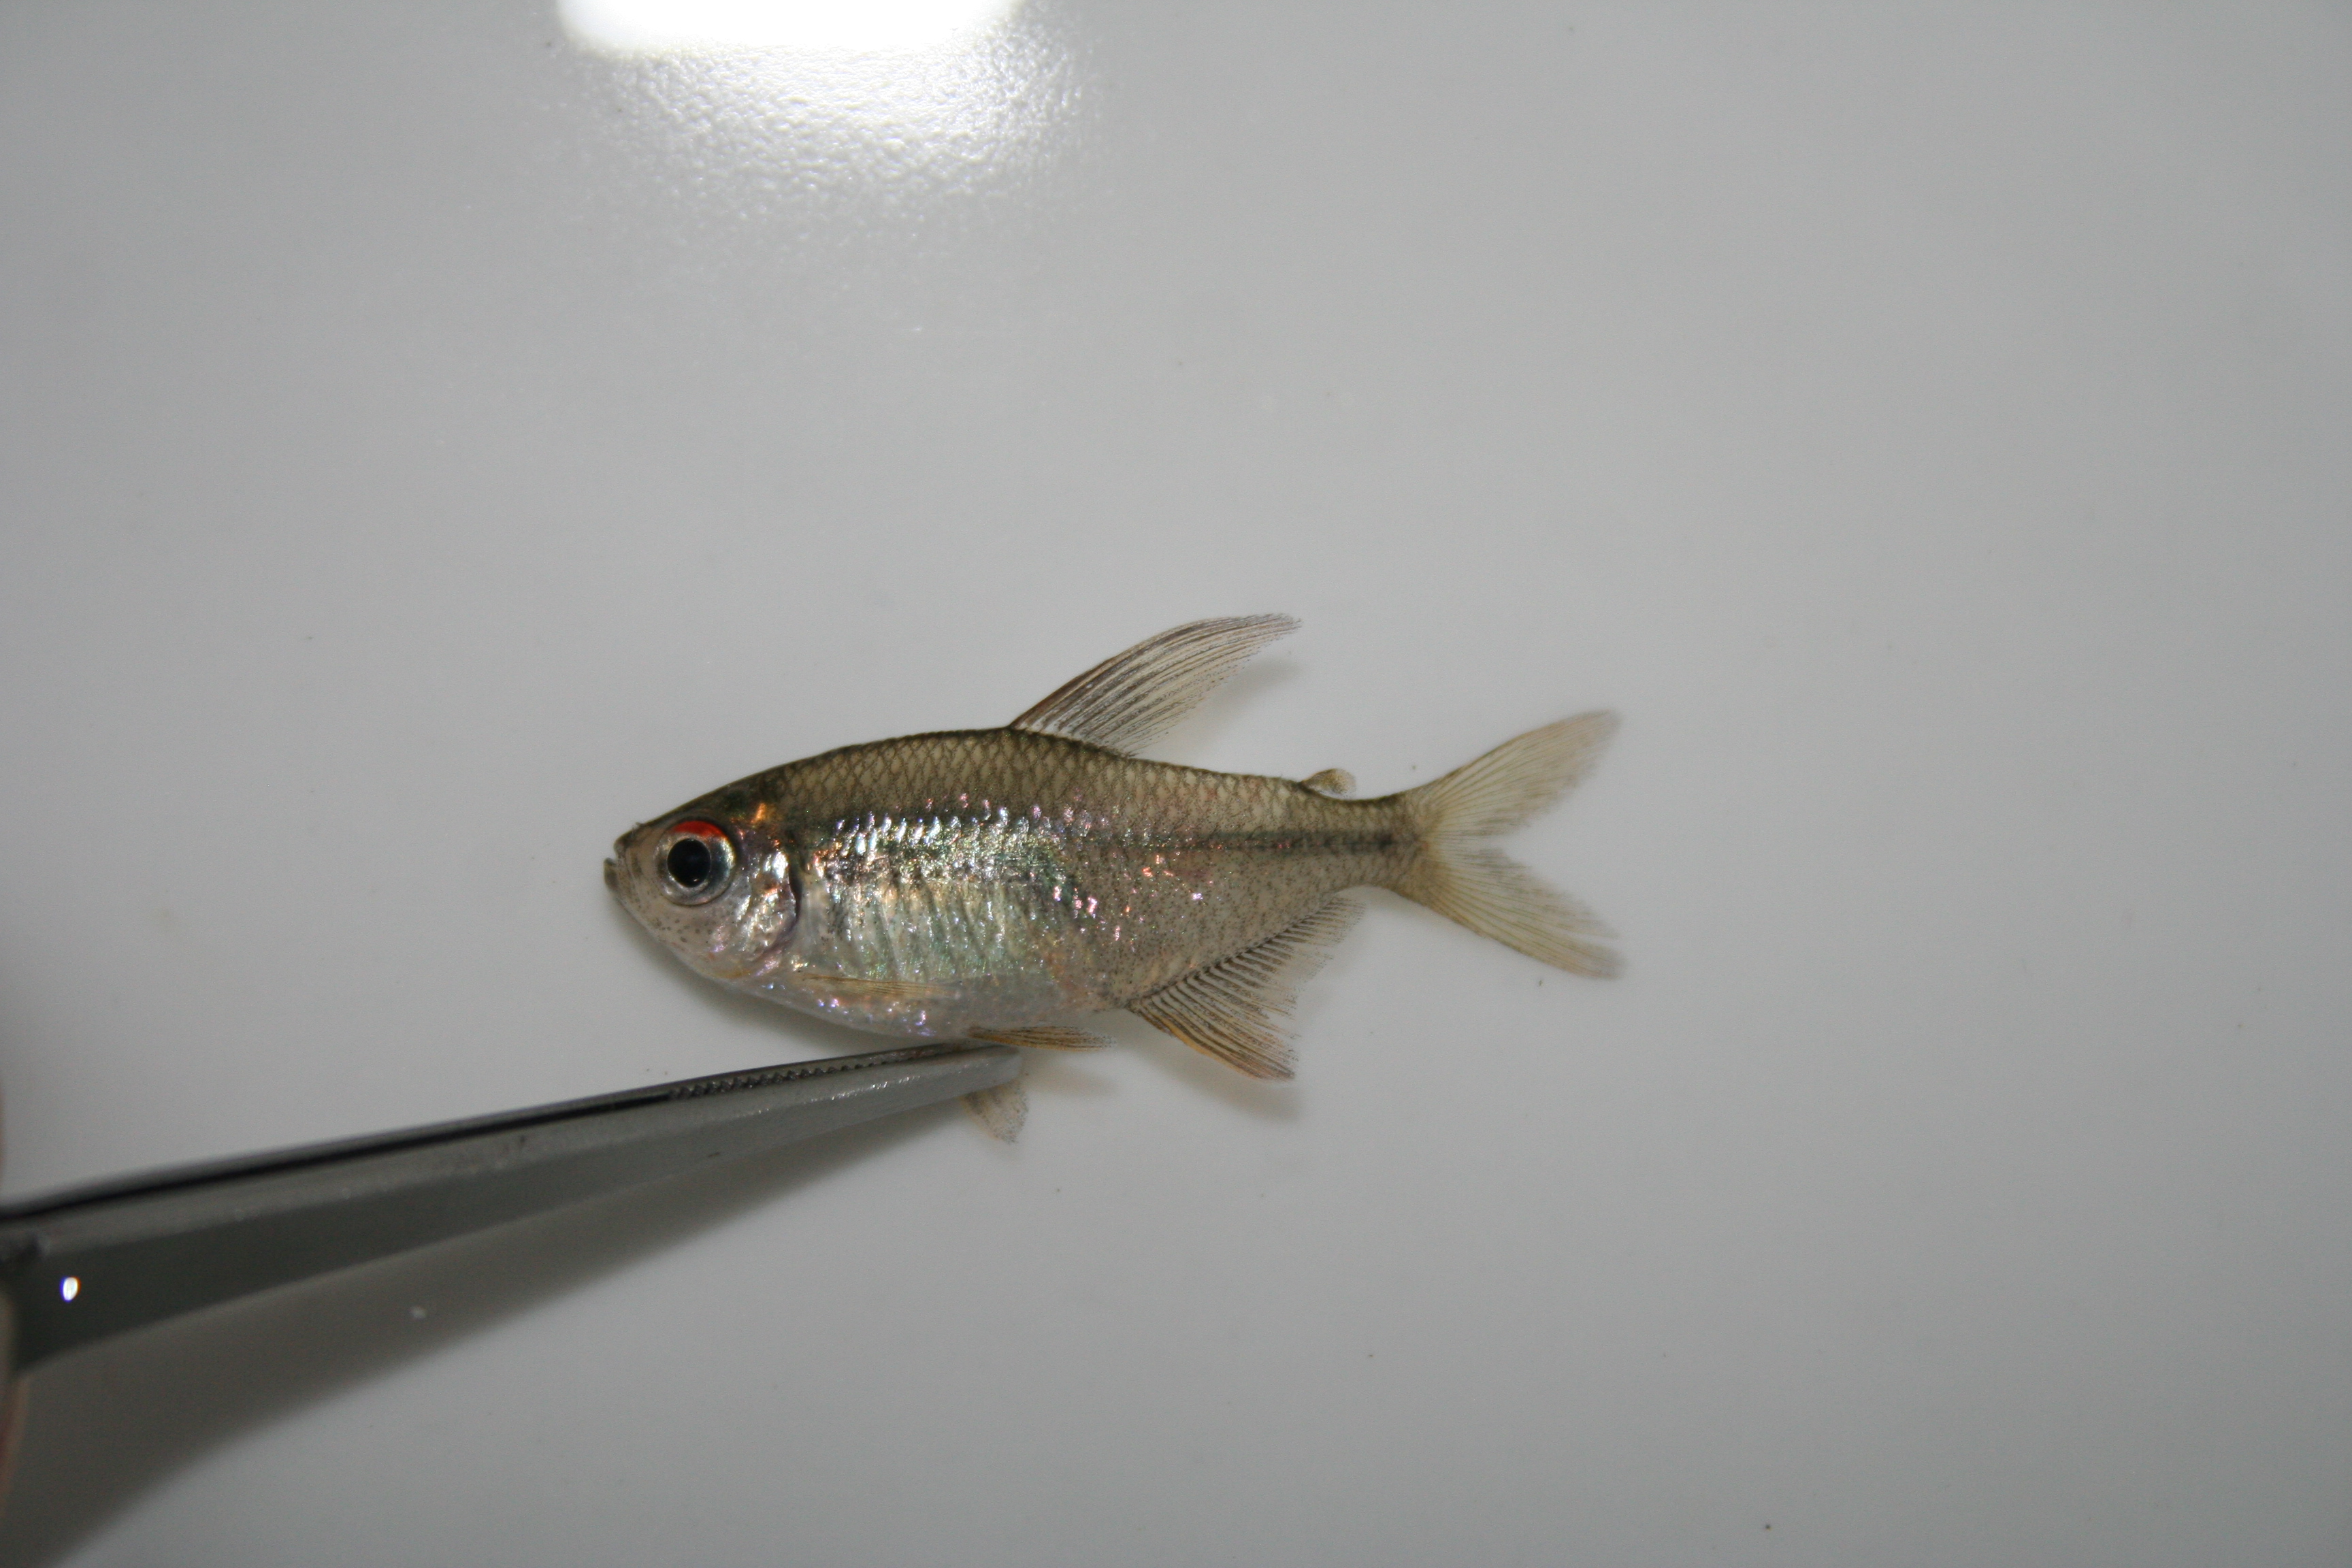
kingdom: Animalia
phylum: Chordata
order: Characiformes
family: Characidae
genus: Moenkhausia
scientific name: Moenkhausia pittieri
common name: Diamond characin
